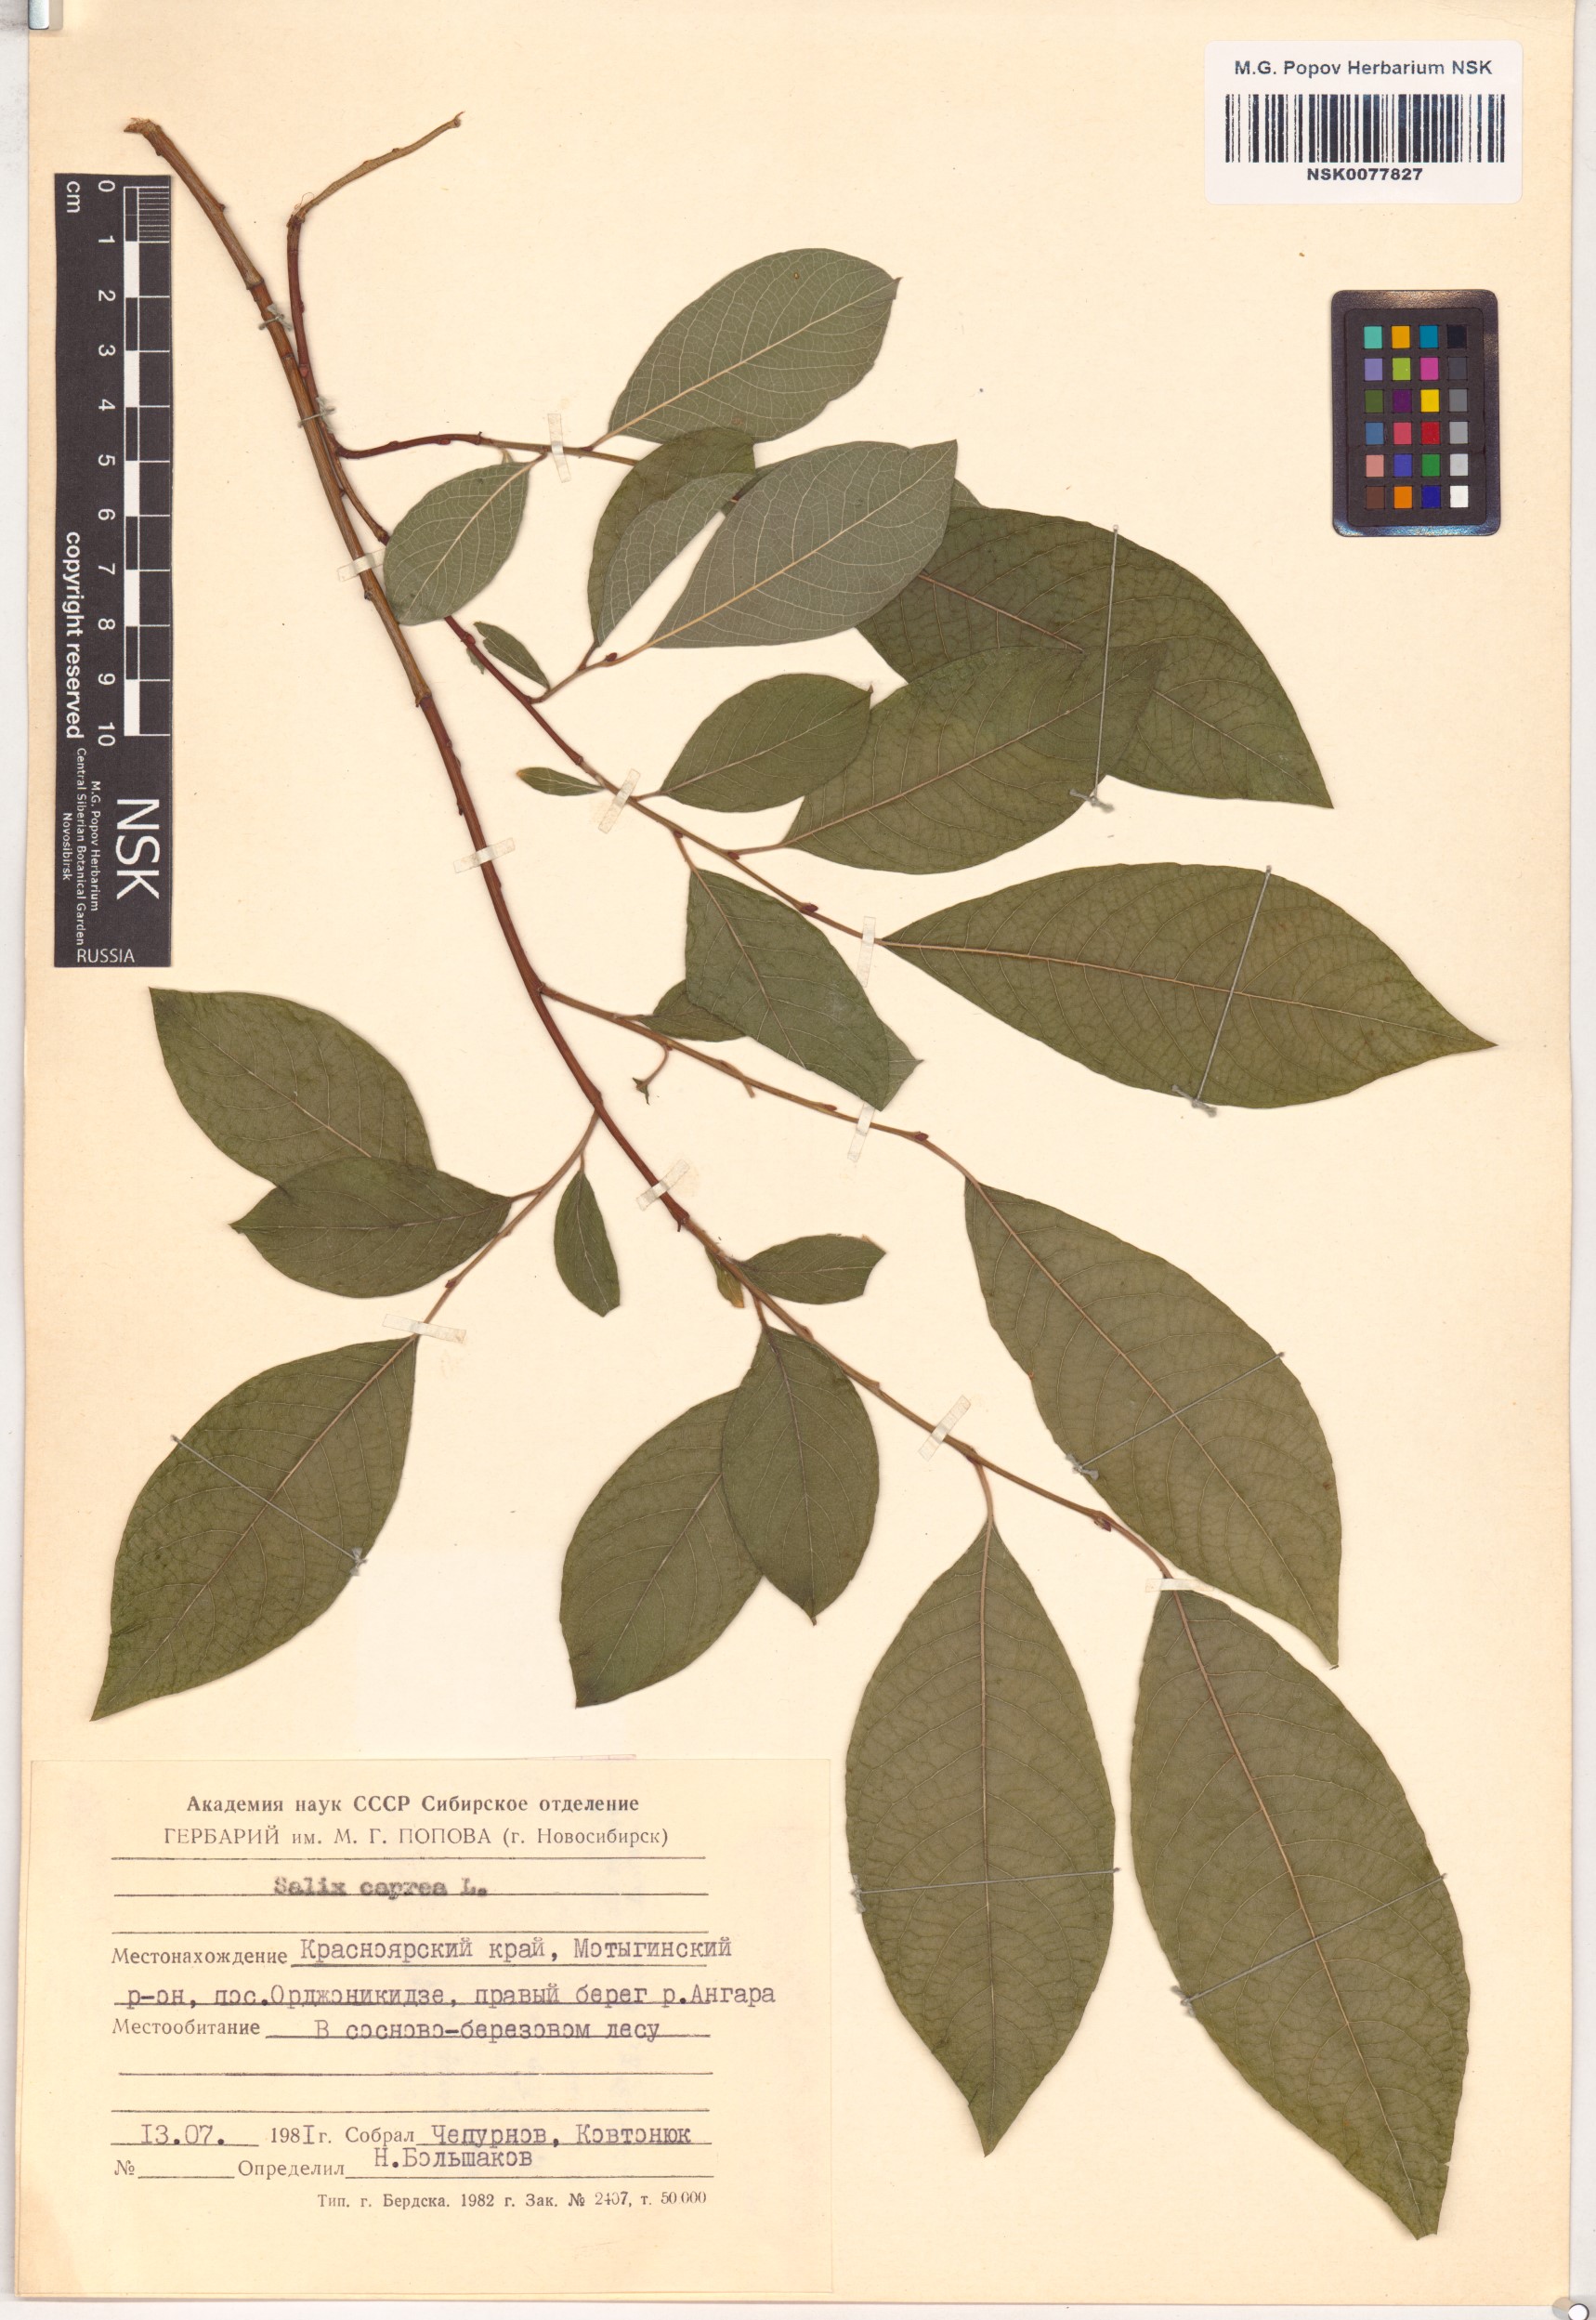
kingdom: Plantae
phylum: Tracheophyta
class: Magnoliopsida
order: Malpighiales
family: Salicaceae
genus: Salix
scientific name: Salix caprea
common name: Goat willow
